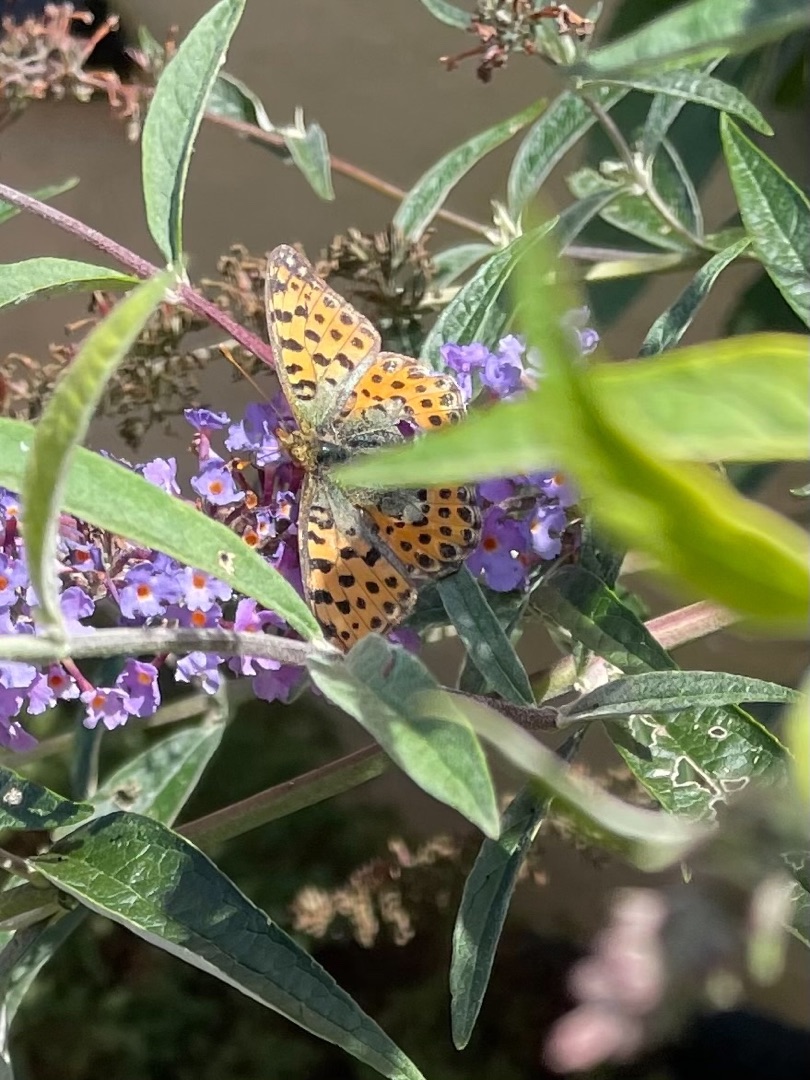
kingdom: Animalia
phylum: Arthropoda
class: Insecta
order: Lepidoptera
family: Nymphalidae
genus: Issoria
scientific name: Issoria lathonia
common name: Storplettet perlemorsommerfugl
